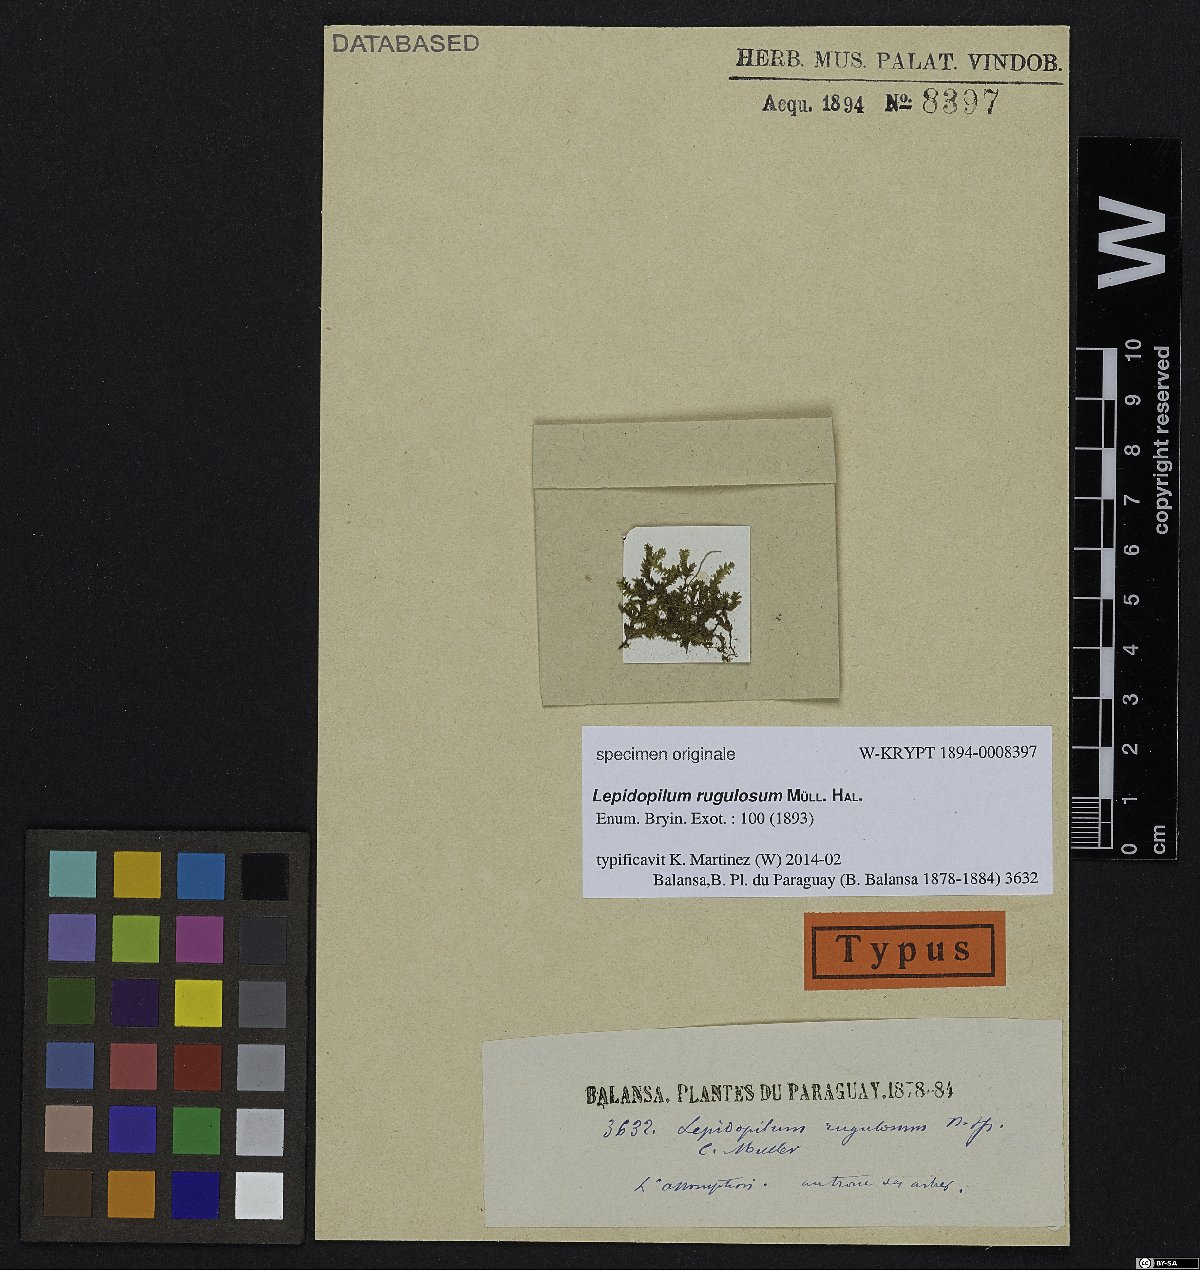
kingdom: Plantae
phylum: Bryophyta
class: Bryopsida
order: Hookeriales
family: Daltoniaceae
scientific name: Daltoniaceae
